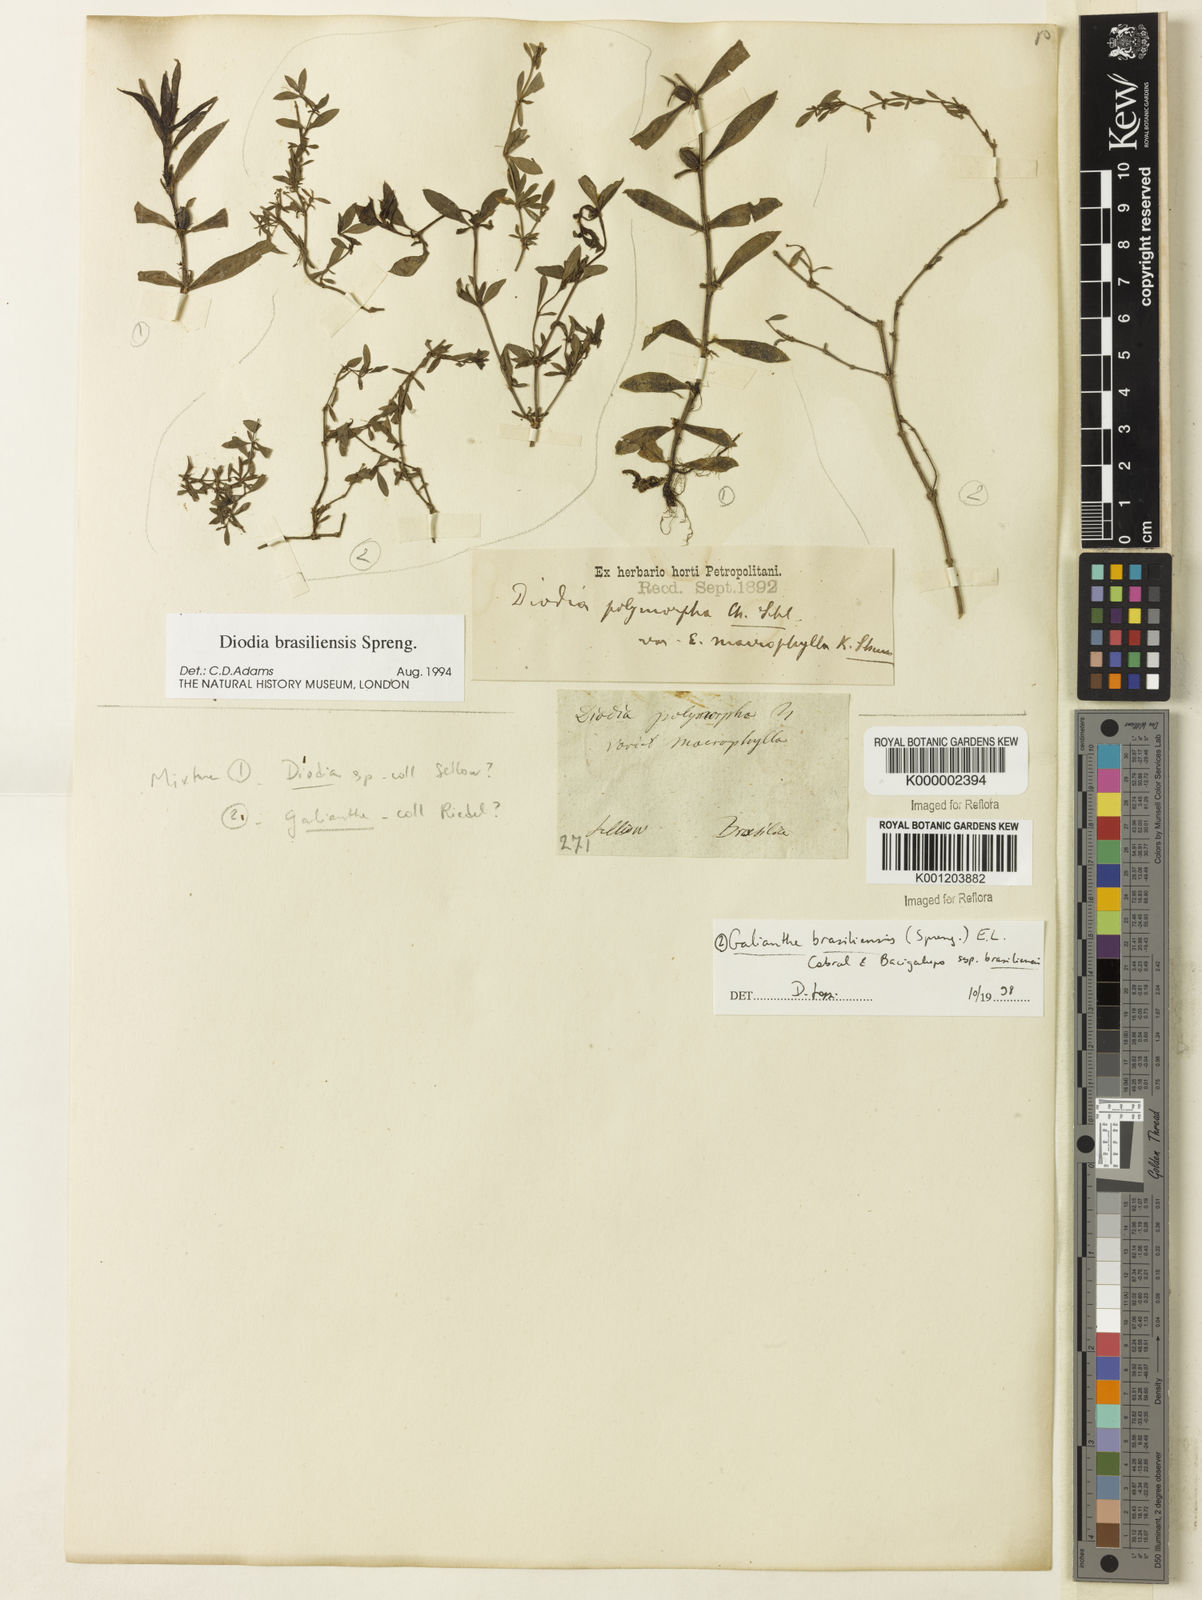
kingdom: Plantae
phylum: Tracheophyta
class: Magnoliopsida
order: Gentianales
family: Rubiaceae
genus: Galianthe
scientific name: Galianthe brasiliensis
